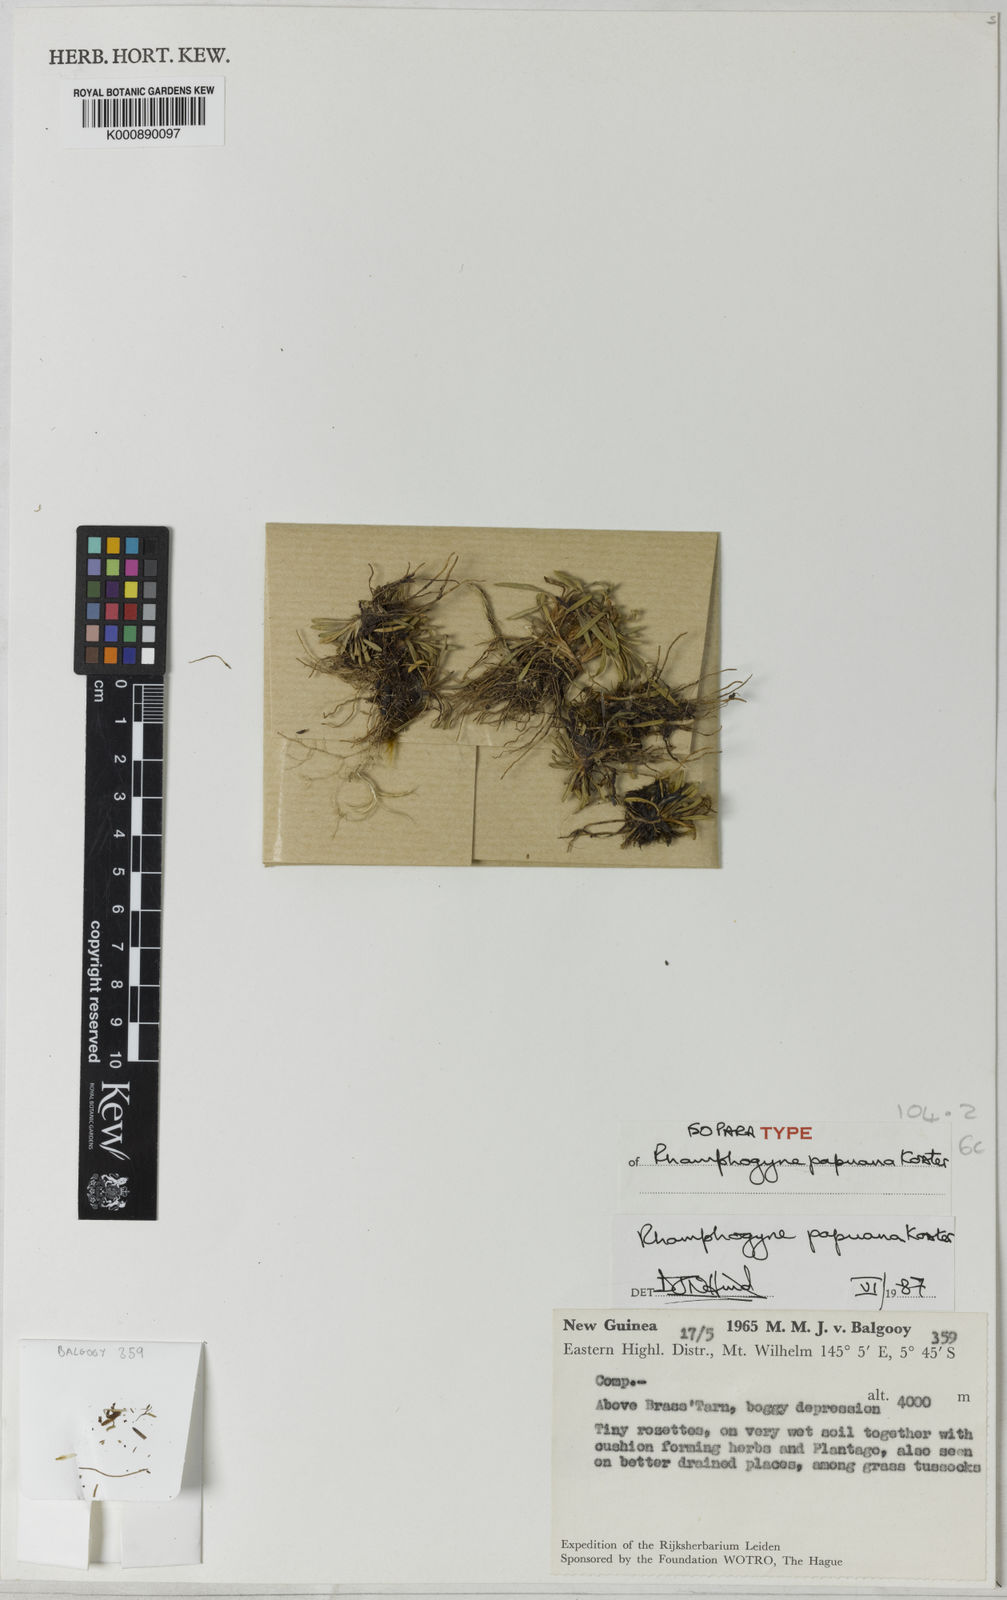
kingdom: Plantae
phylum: Tracheophyta
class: Magnoliopsida
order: Asterales
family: Asteraceae
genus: Lagenocypsela
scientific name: Lagenocypsela papuana
